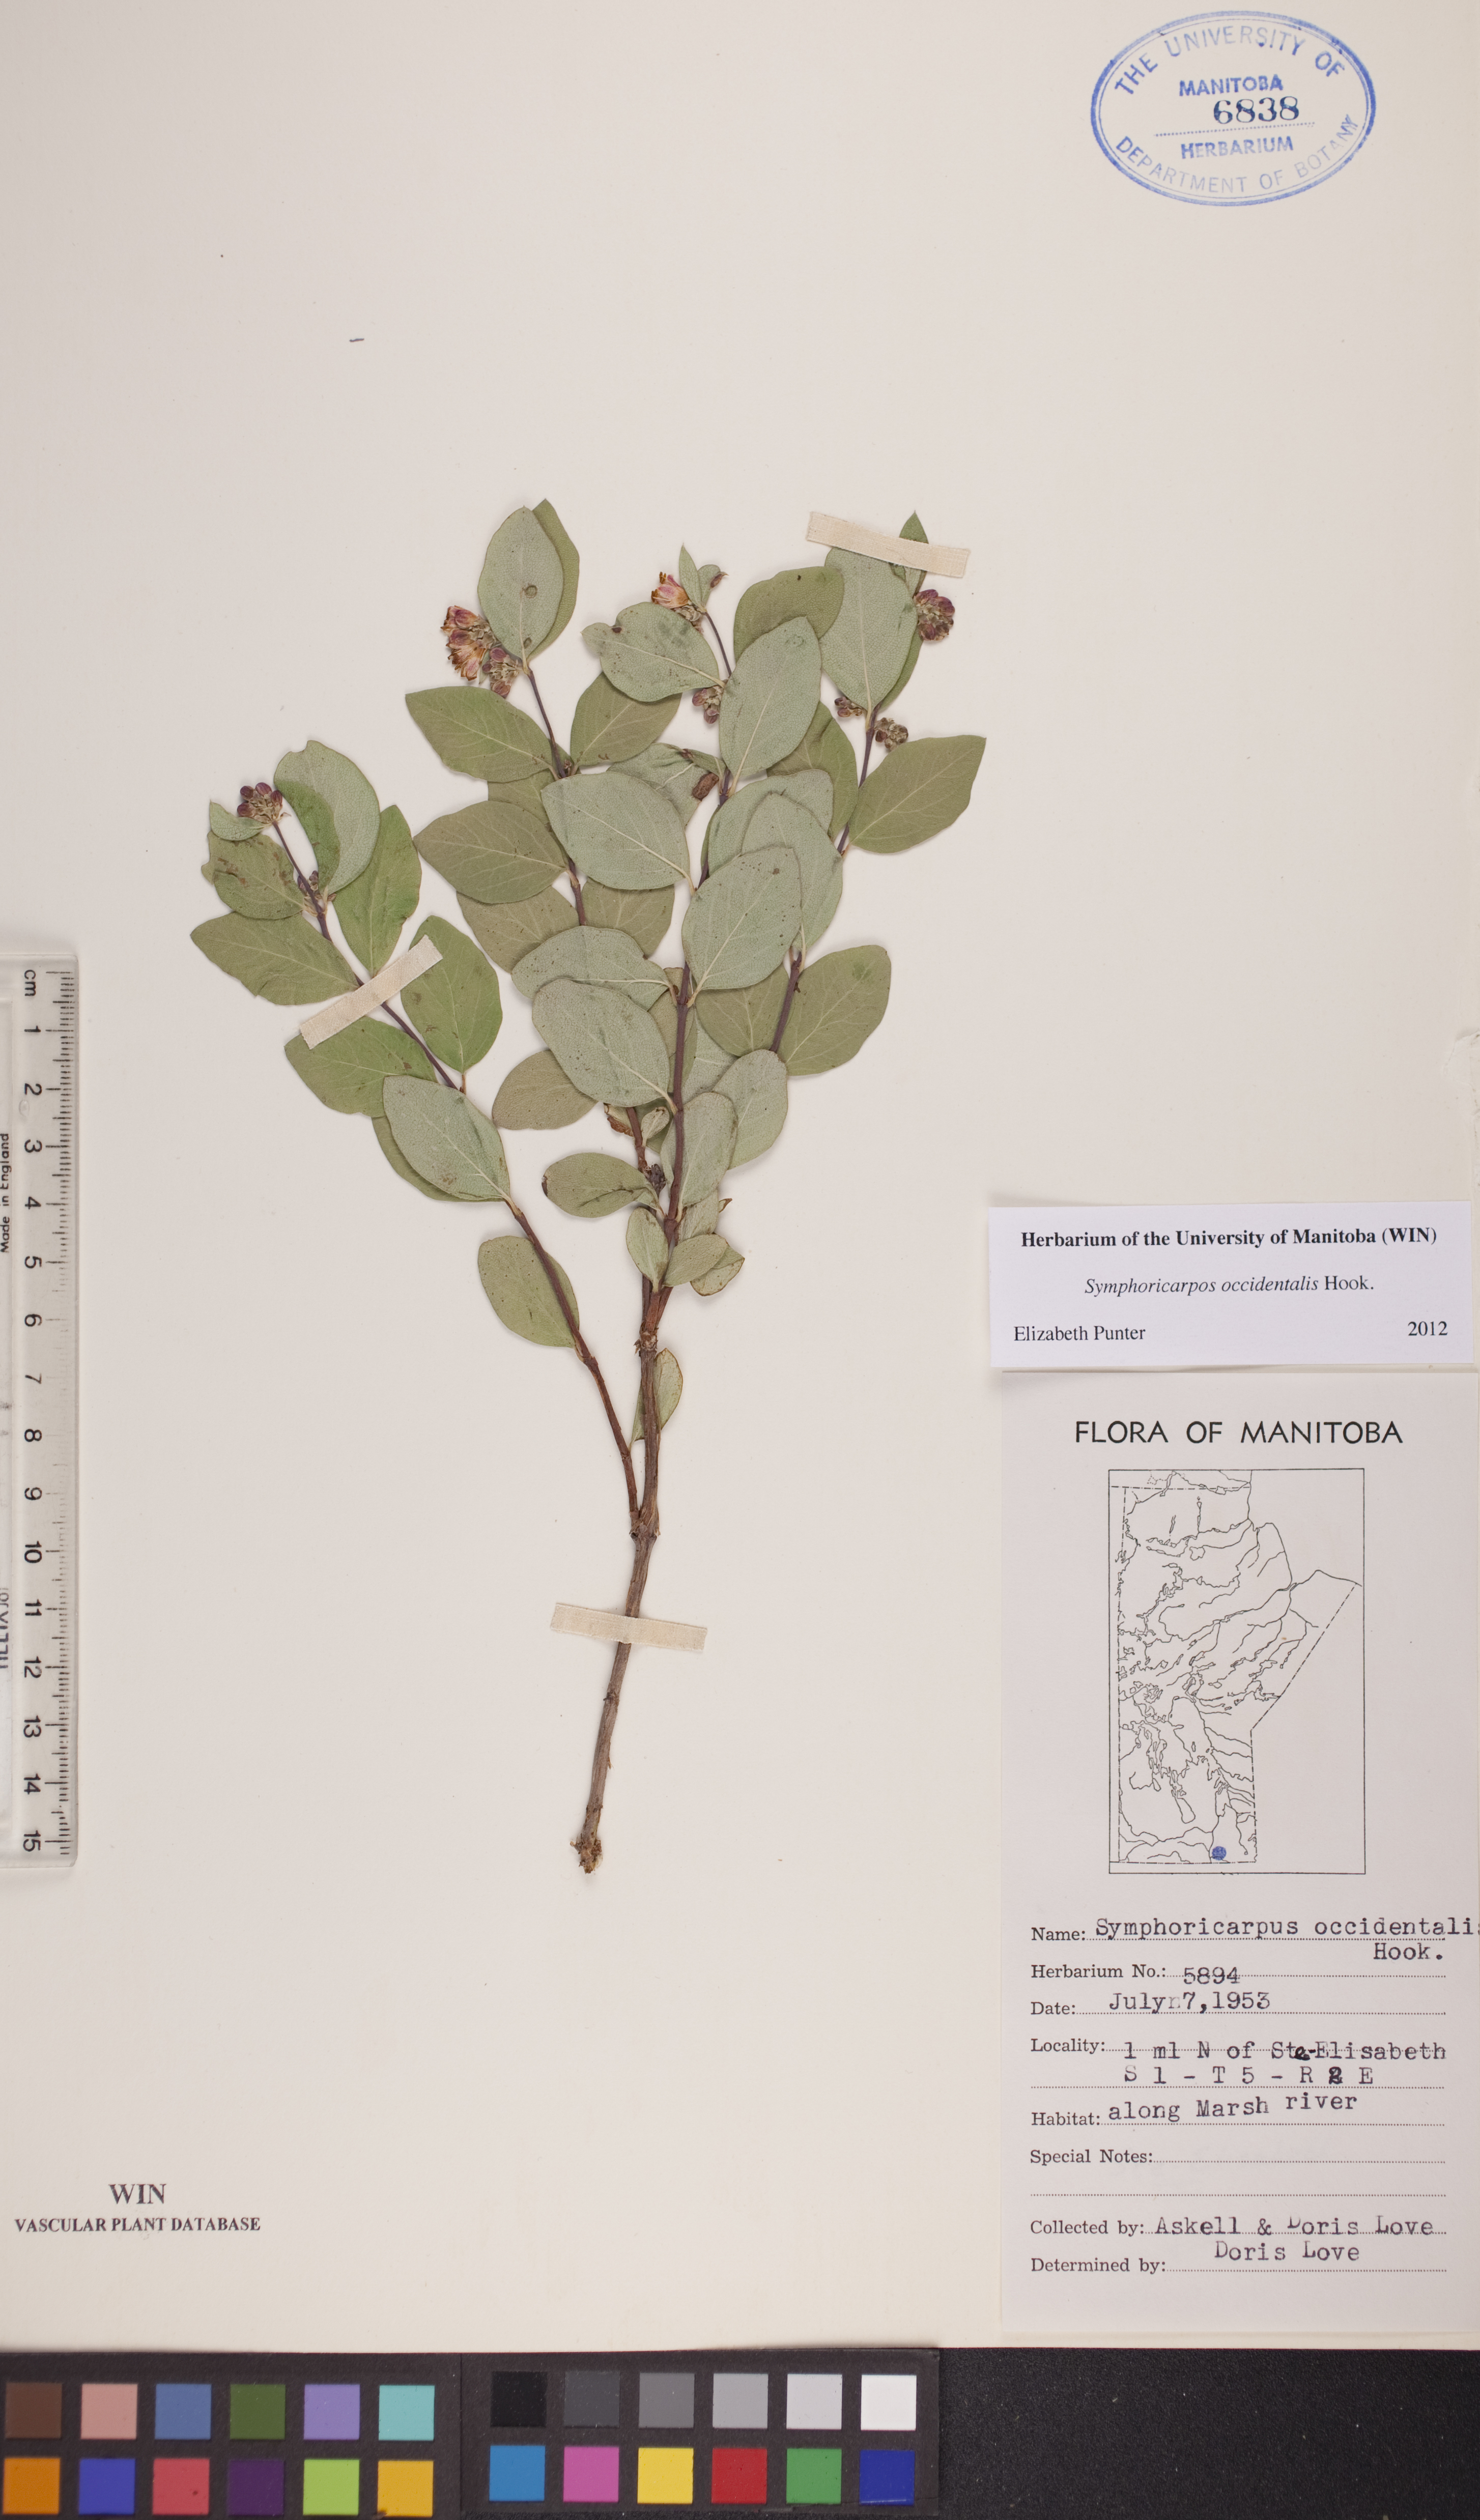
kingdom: Plantae
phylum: Tracheophyta
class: Magnoliopsida
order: Dipsacales
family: Caprifoliaceae
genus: Symphoricarpos
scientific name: Symphoricarpos occidentalis
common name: Wolfberry
